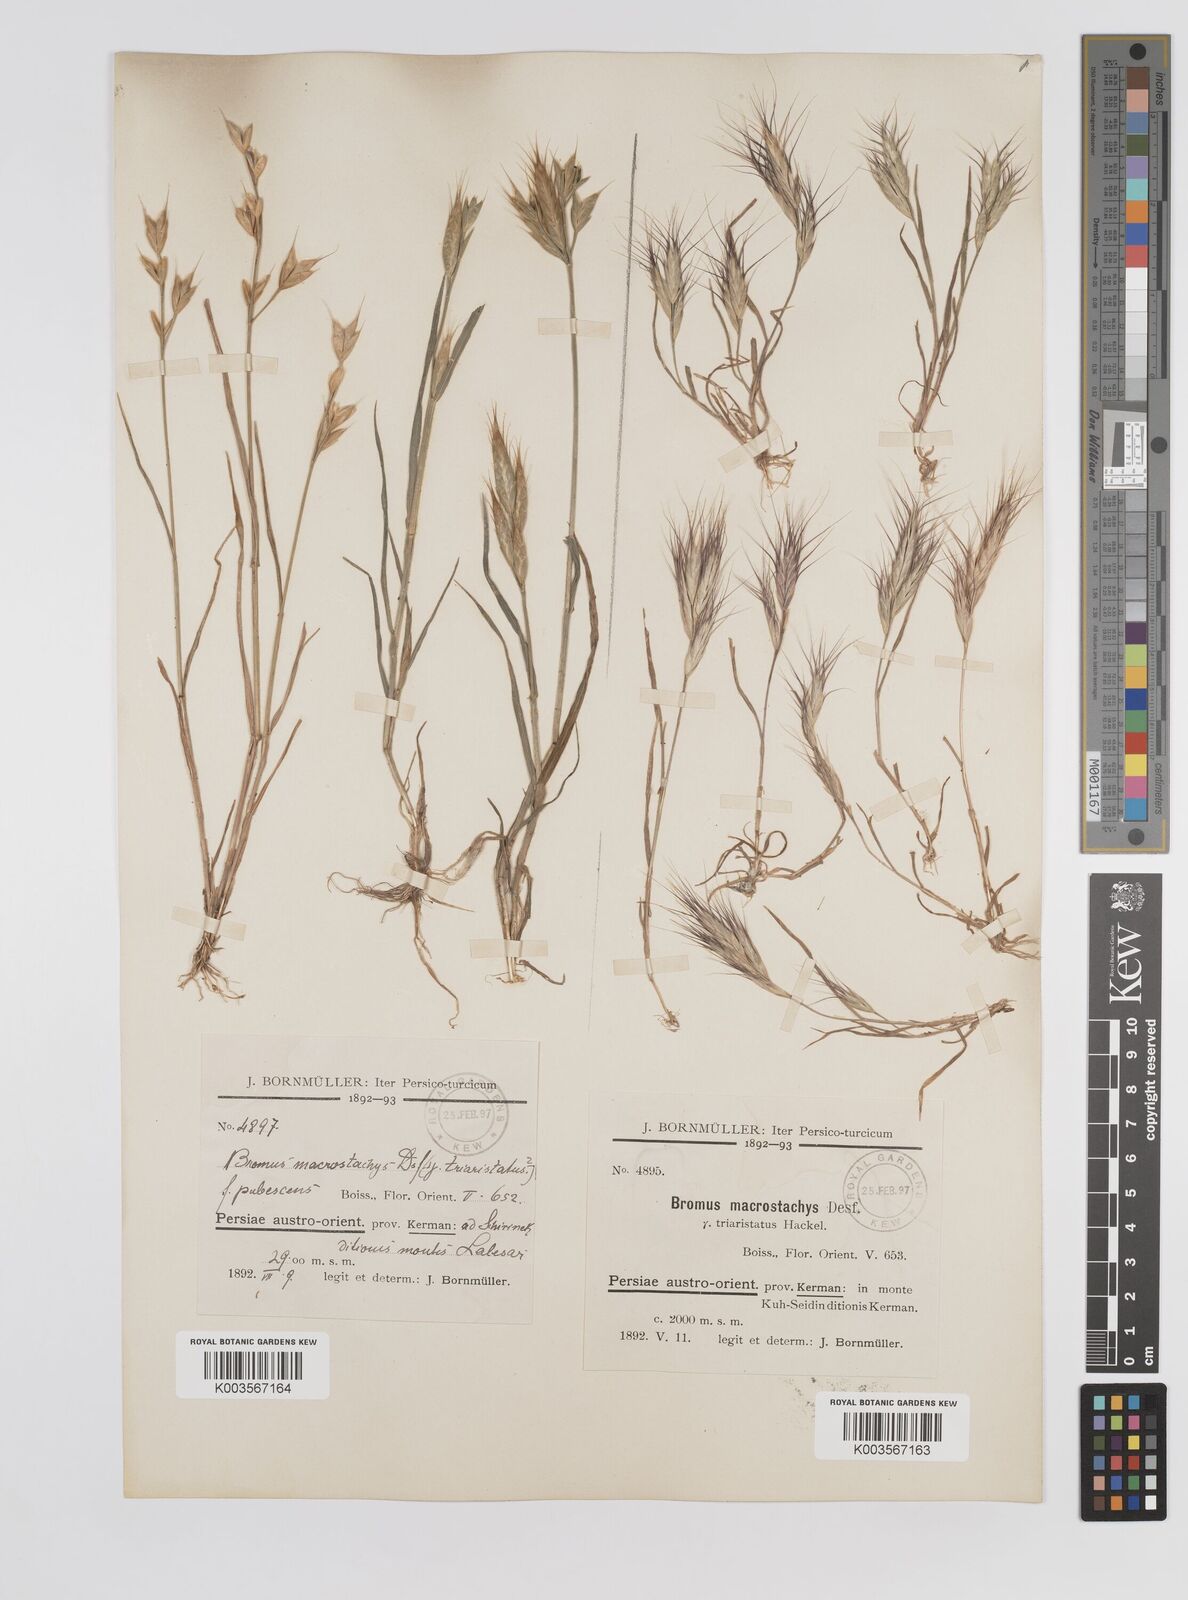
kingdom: Plantae
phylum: Tracheophyta
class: Liliopsida
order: Poales
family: Poaceae
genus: Bromus
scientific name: Bromus danthoniae
